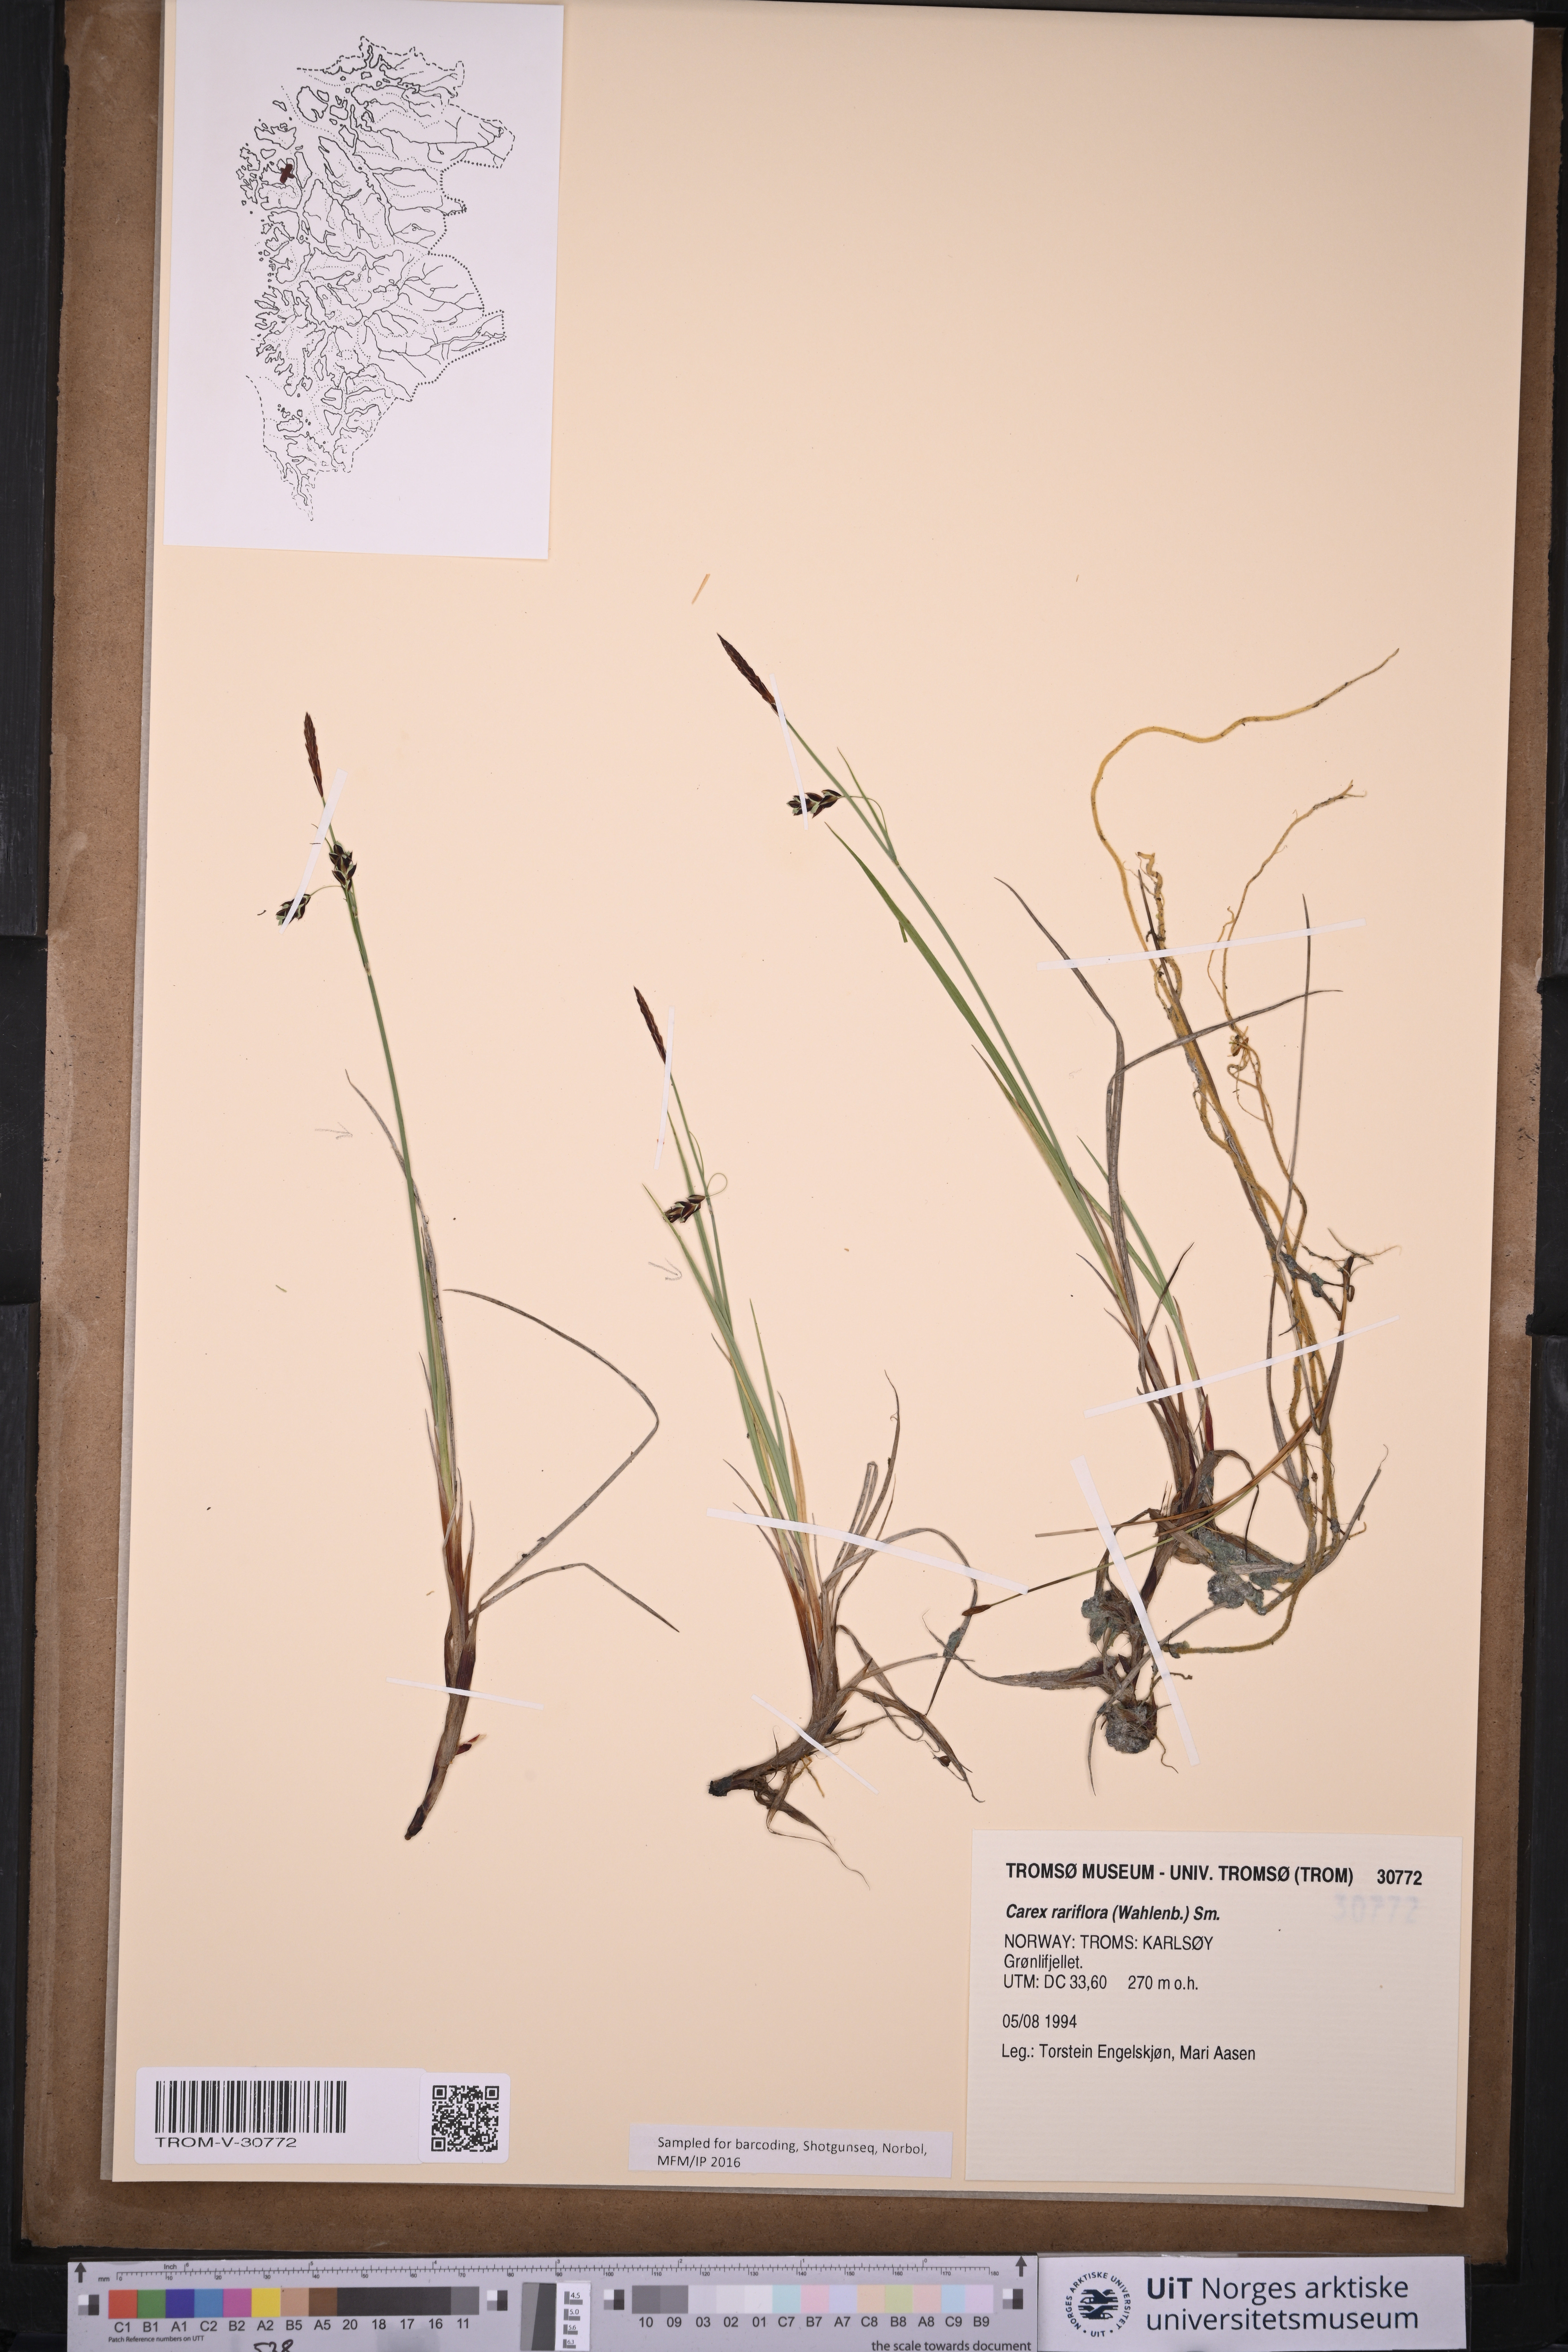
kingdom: Plantae
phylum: Tracheophyta
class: Liliopsida
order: Poales
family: Cyperaceae
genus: Carex
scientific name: Carex rariflora
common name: Loose-flowered alpine sedge
